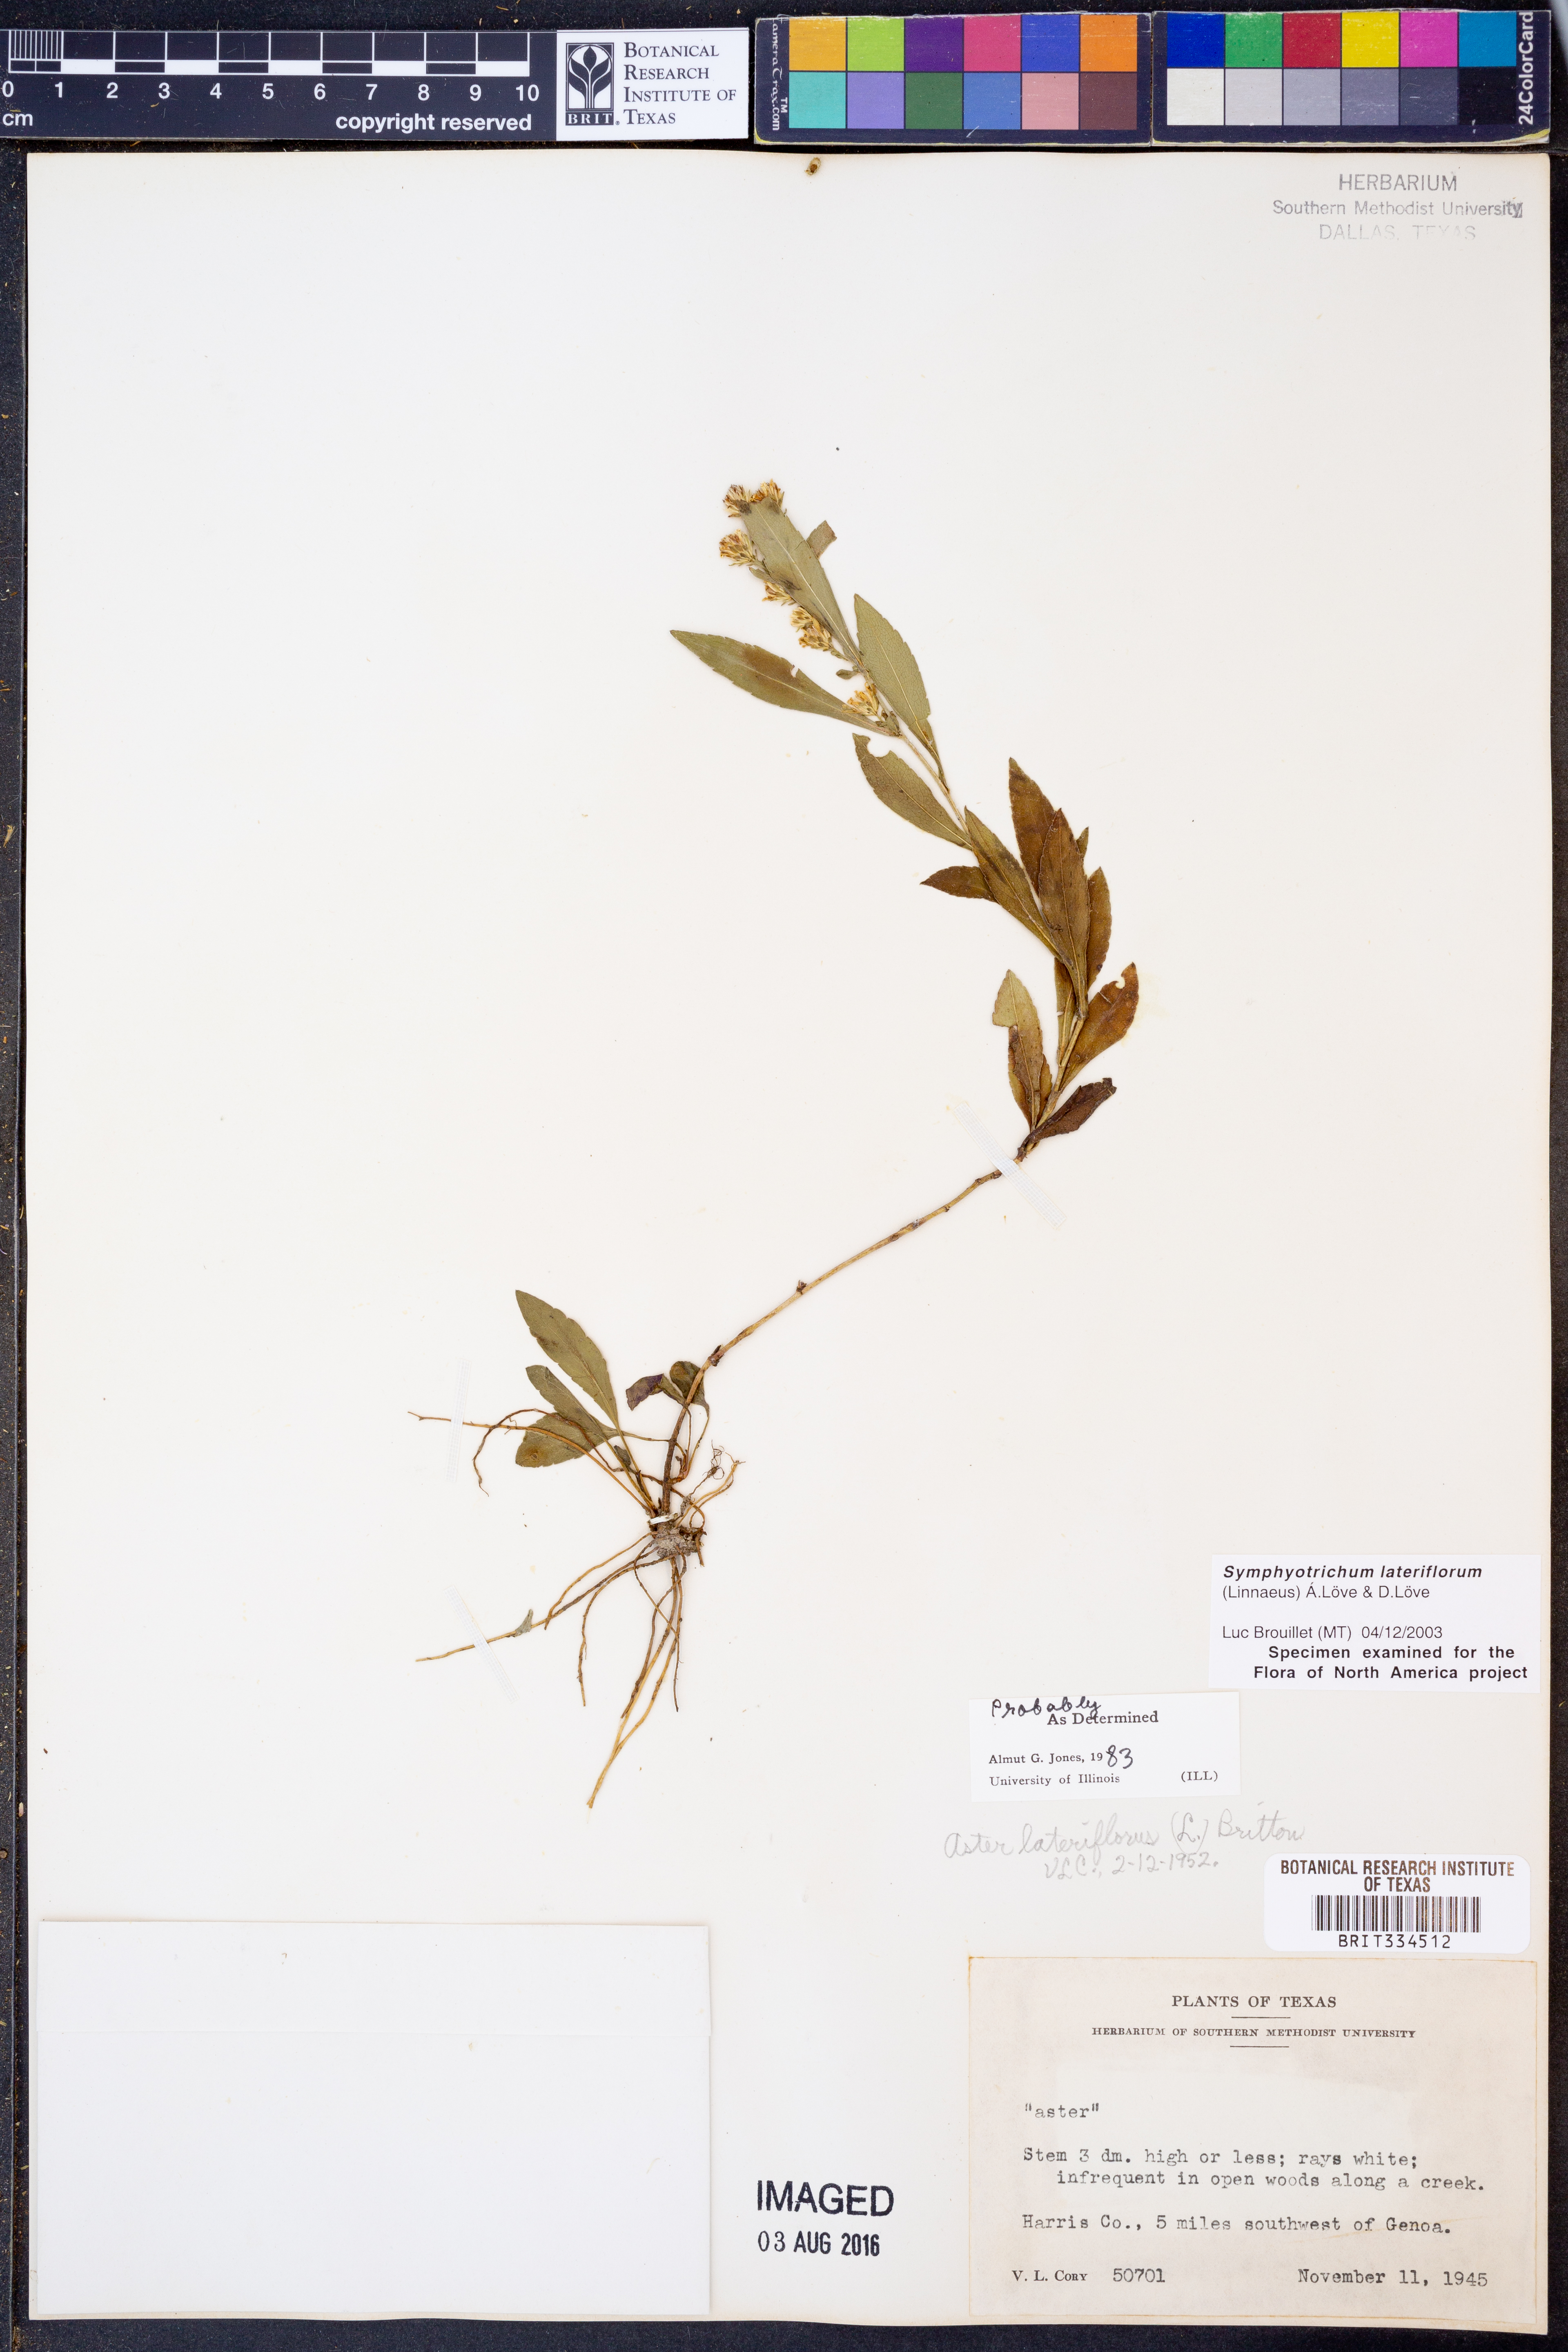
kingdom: Plantae
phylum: Tracheophyta
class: Magnoliopsida
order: Asterales
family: Asteraceae
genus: Symphyotrichum
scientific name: Symphyotrichum lateriflorum
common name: Calico aster
